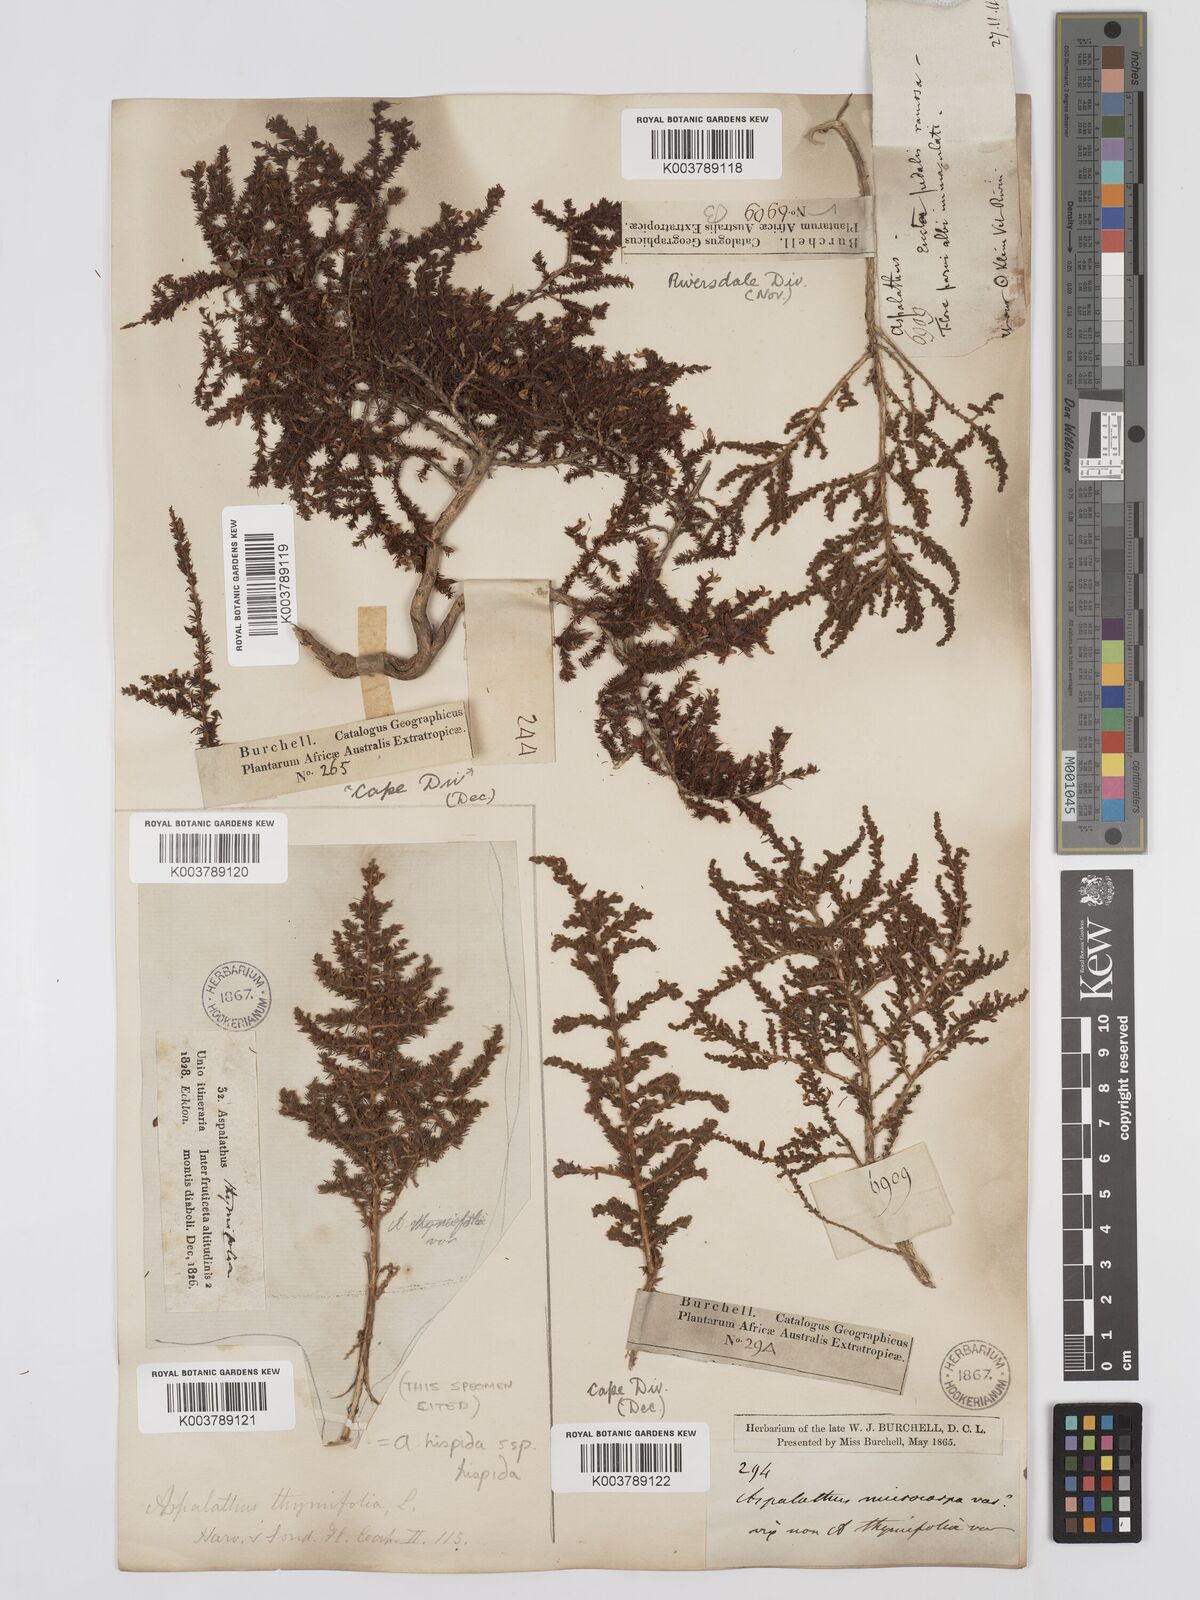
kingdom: Plantae
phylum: Tracheophyta
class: Magnoliopsida
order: Fabales
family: Fabaceae
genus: Aspalathus
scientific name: Aspalathus hispida
